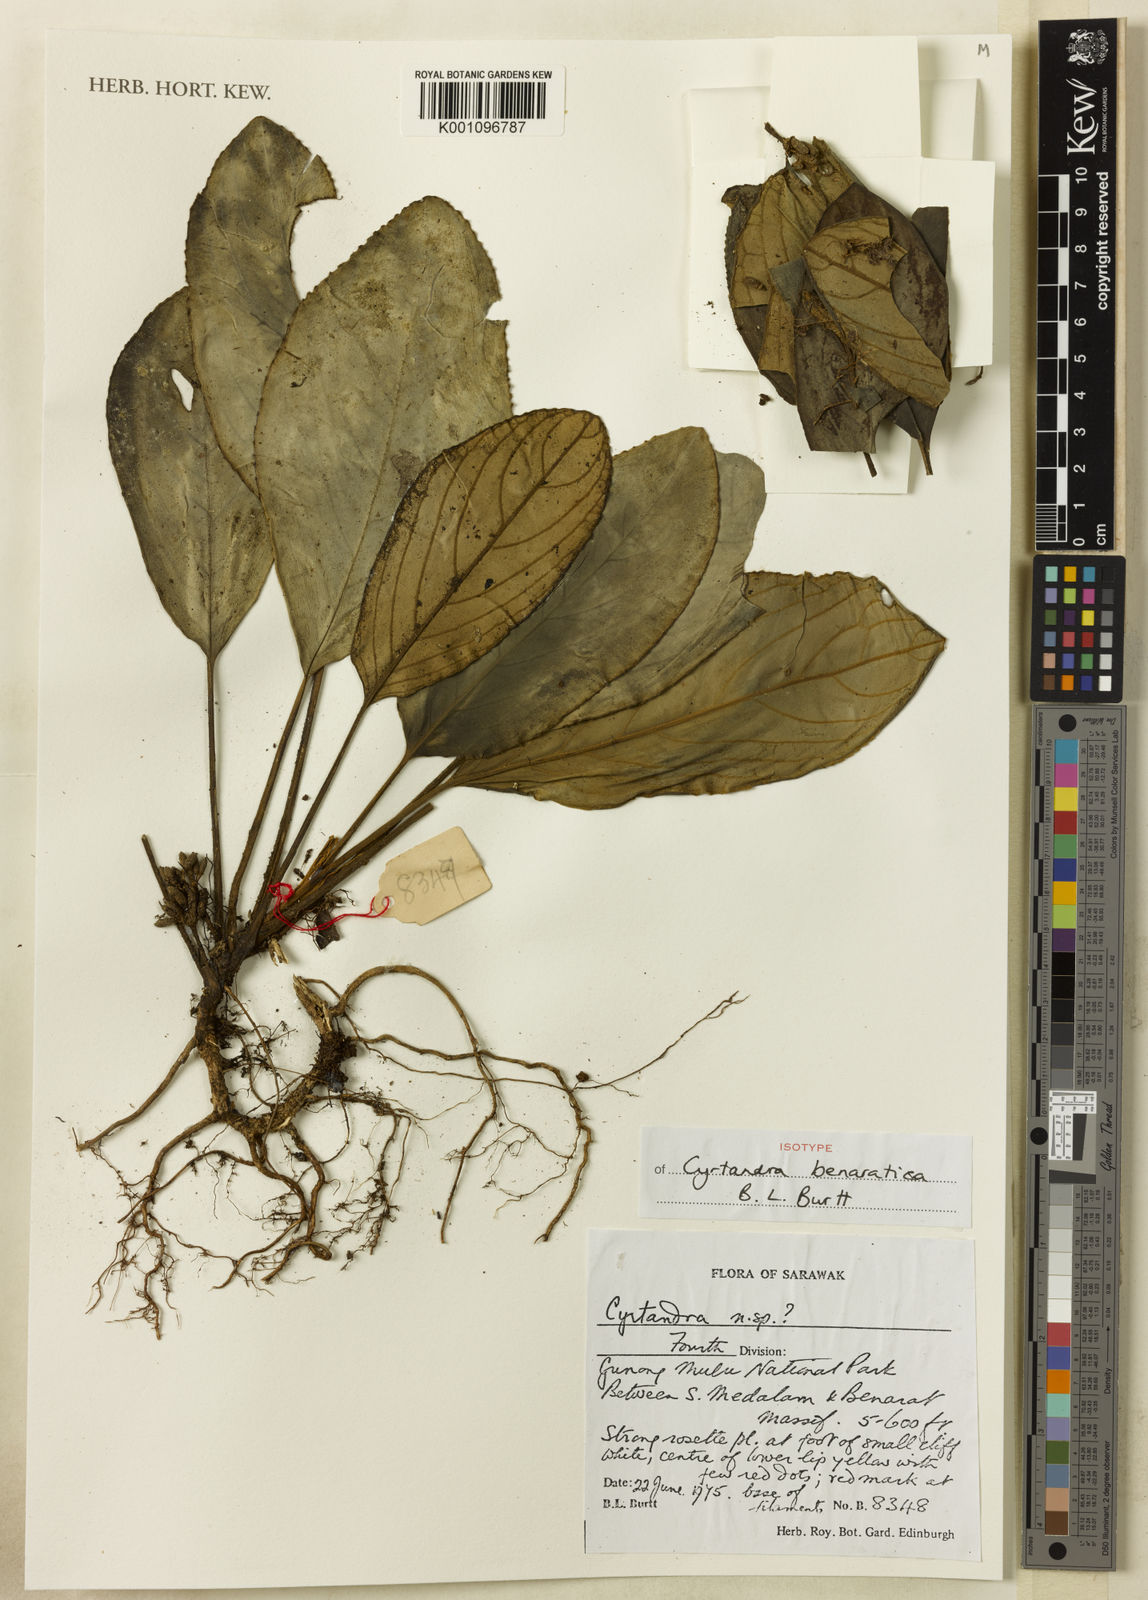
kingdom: Plantae
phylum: Tracheophyta
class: Magnoliopsida
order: Lamiales
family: Gesneriaceae
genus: Cyrtandra
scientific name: Cyrtandra benaratica
